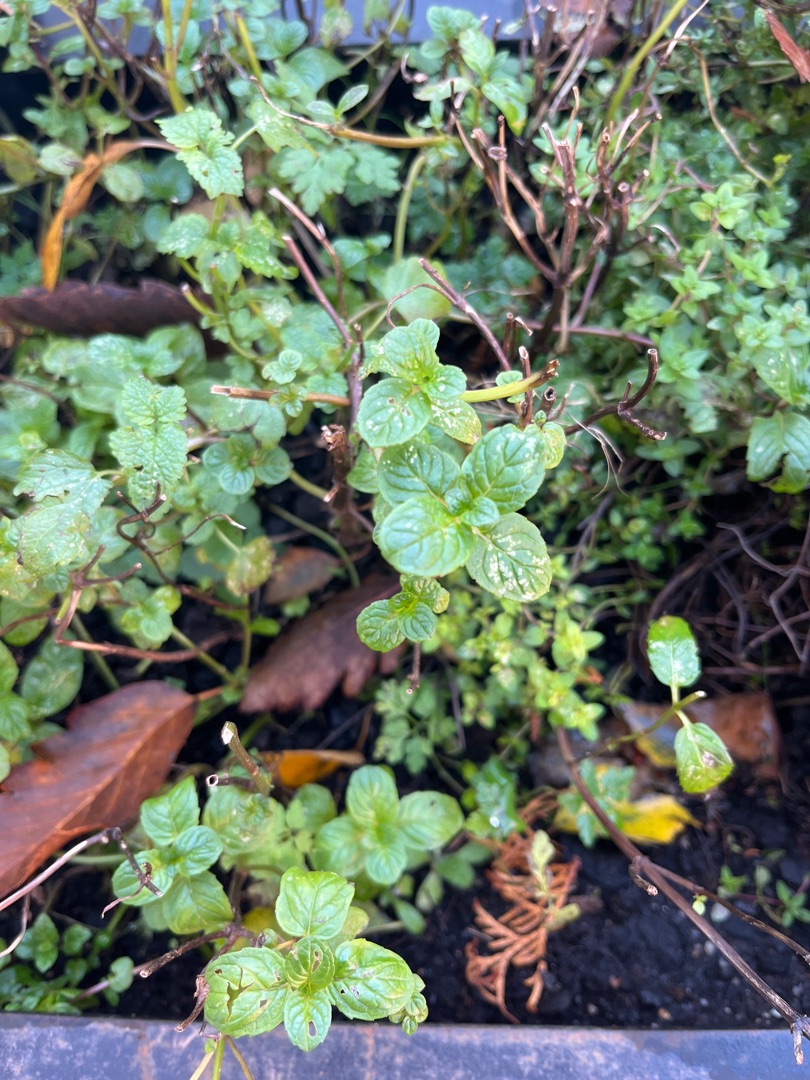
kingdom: Plantae
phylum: Tracheophyta
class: Magnoliopsida
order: Lamiales
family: Lamiaceae
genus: Mentha
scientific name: Mentha
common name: Mynteslægten
